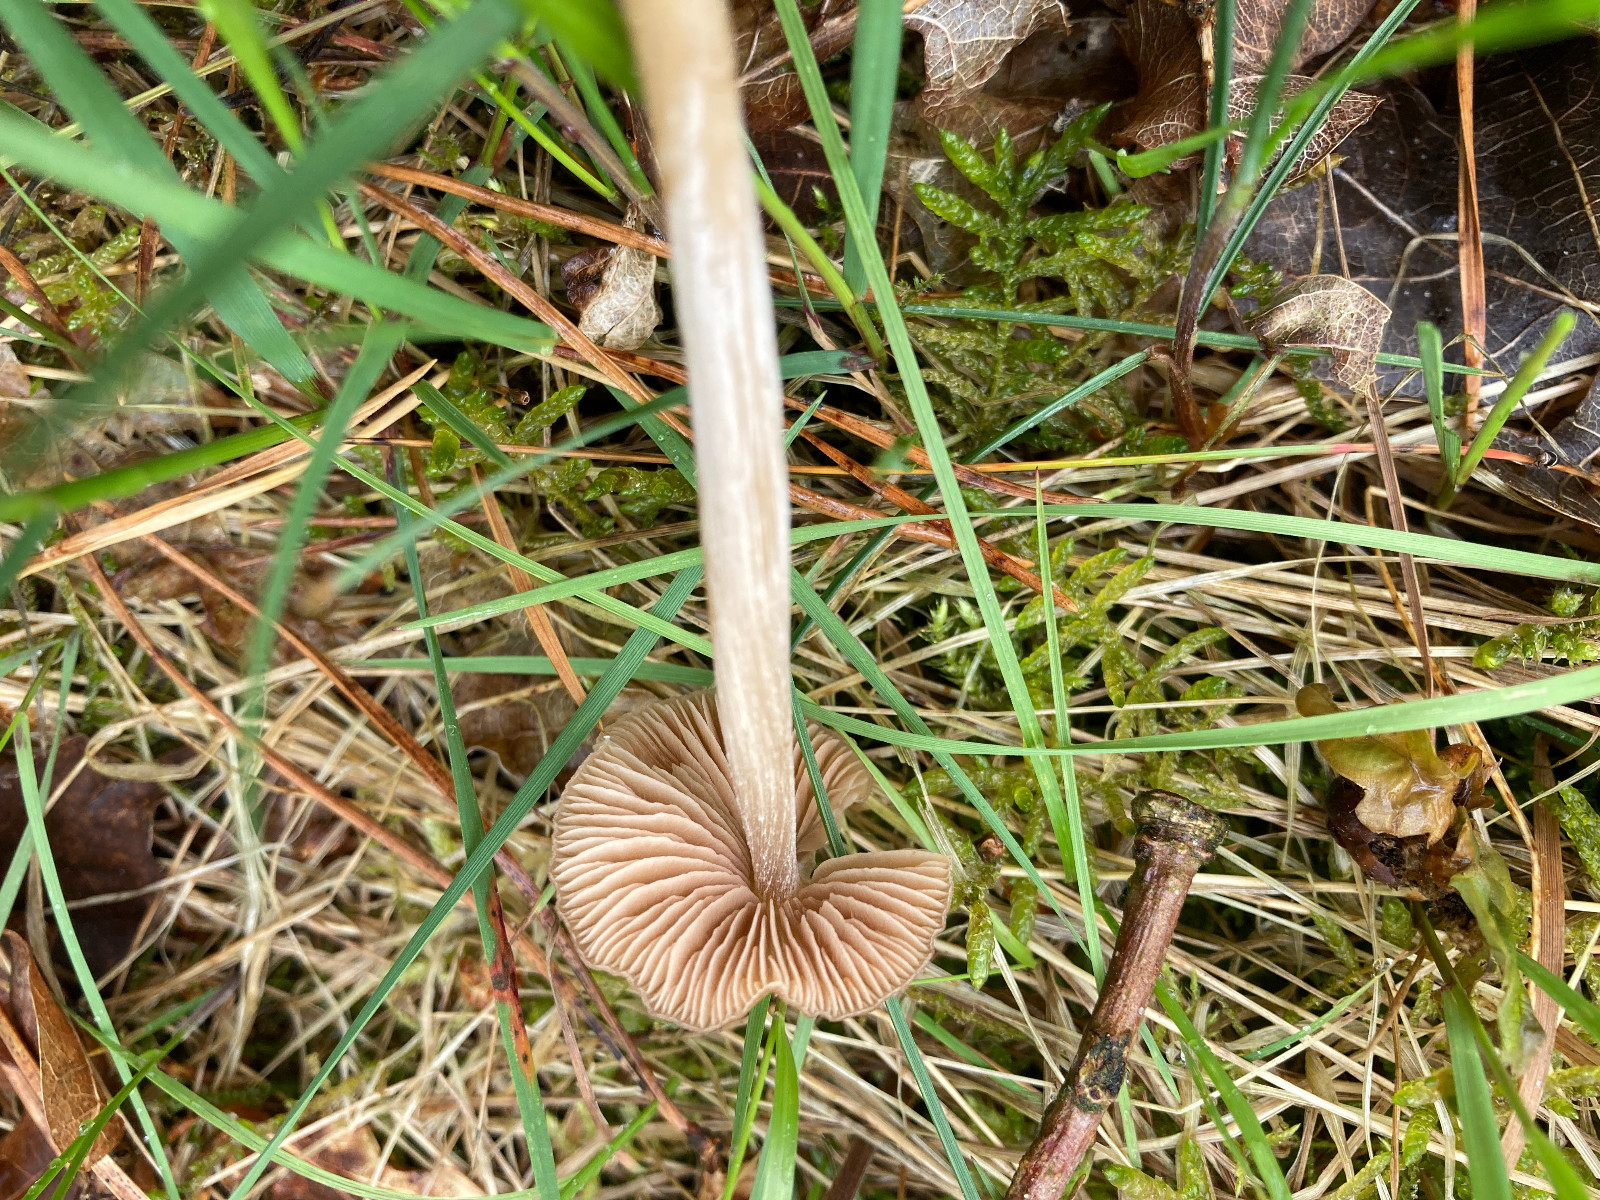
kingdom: Fungi
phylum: Basidiomycota
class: Agaricomycetes
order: Agaricales
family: Entolomataceae
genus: Entoloma
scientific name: Entoloma
